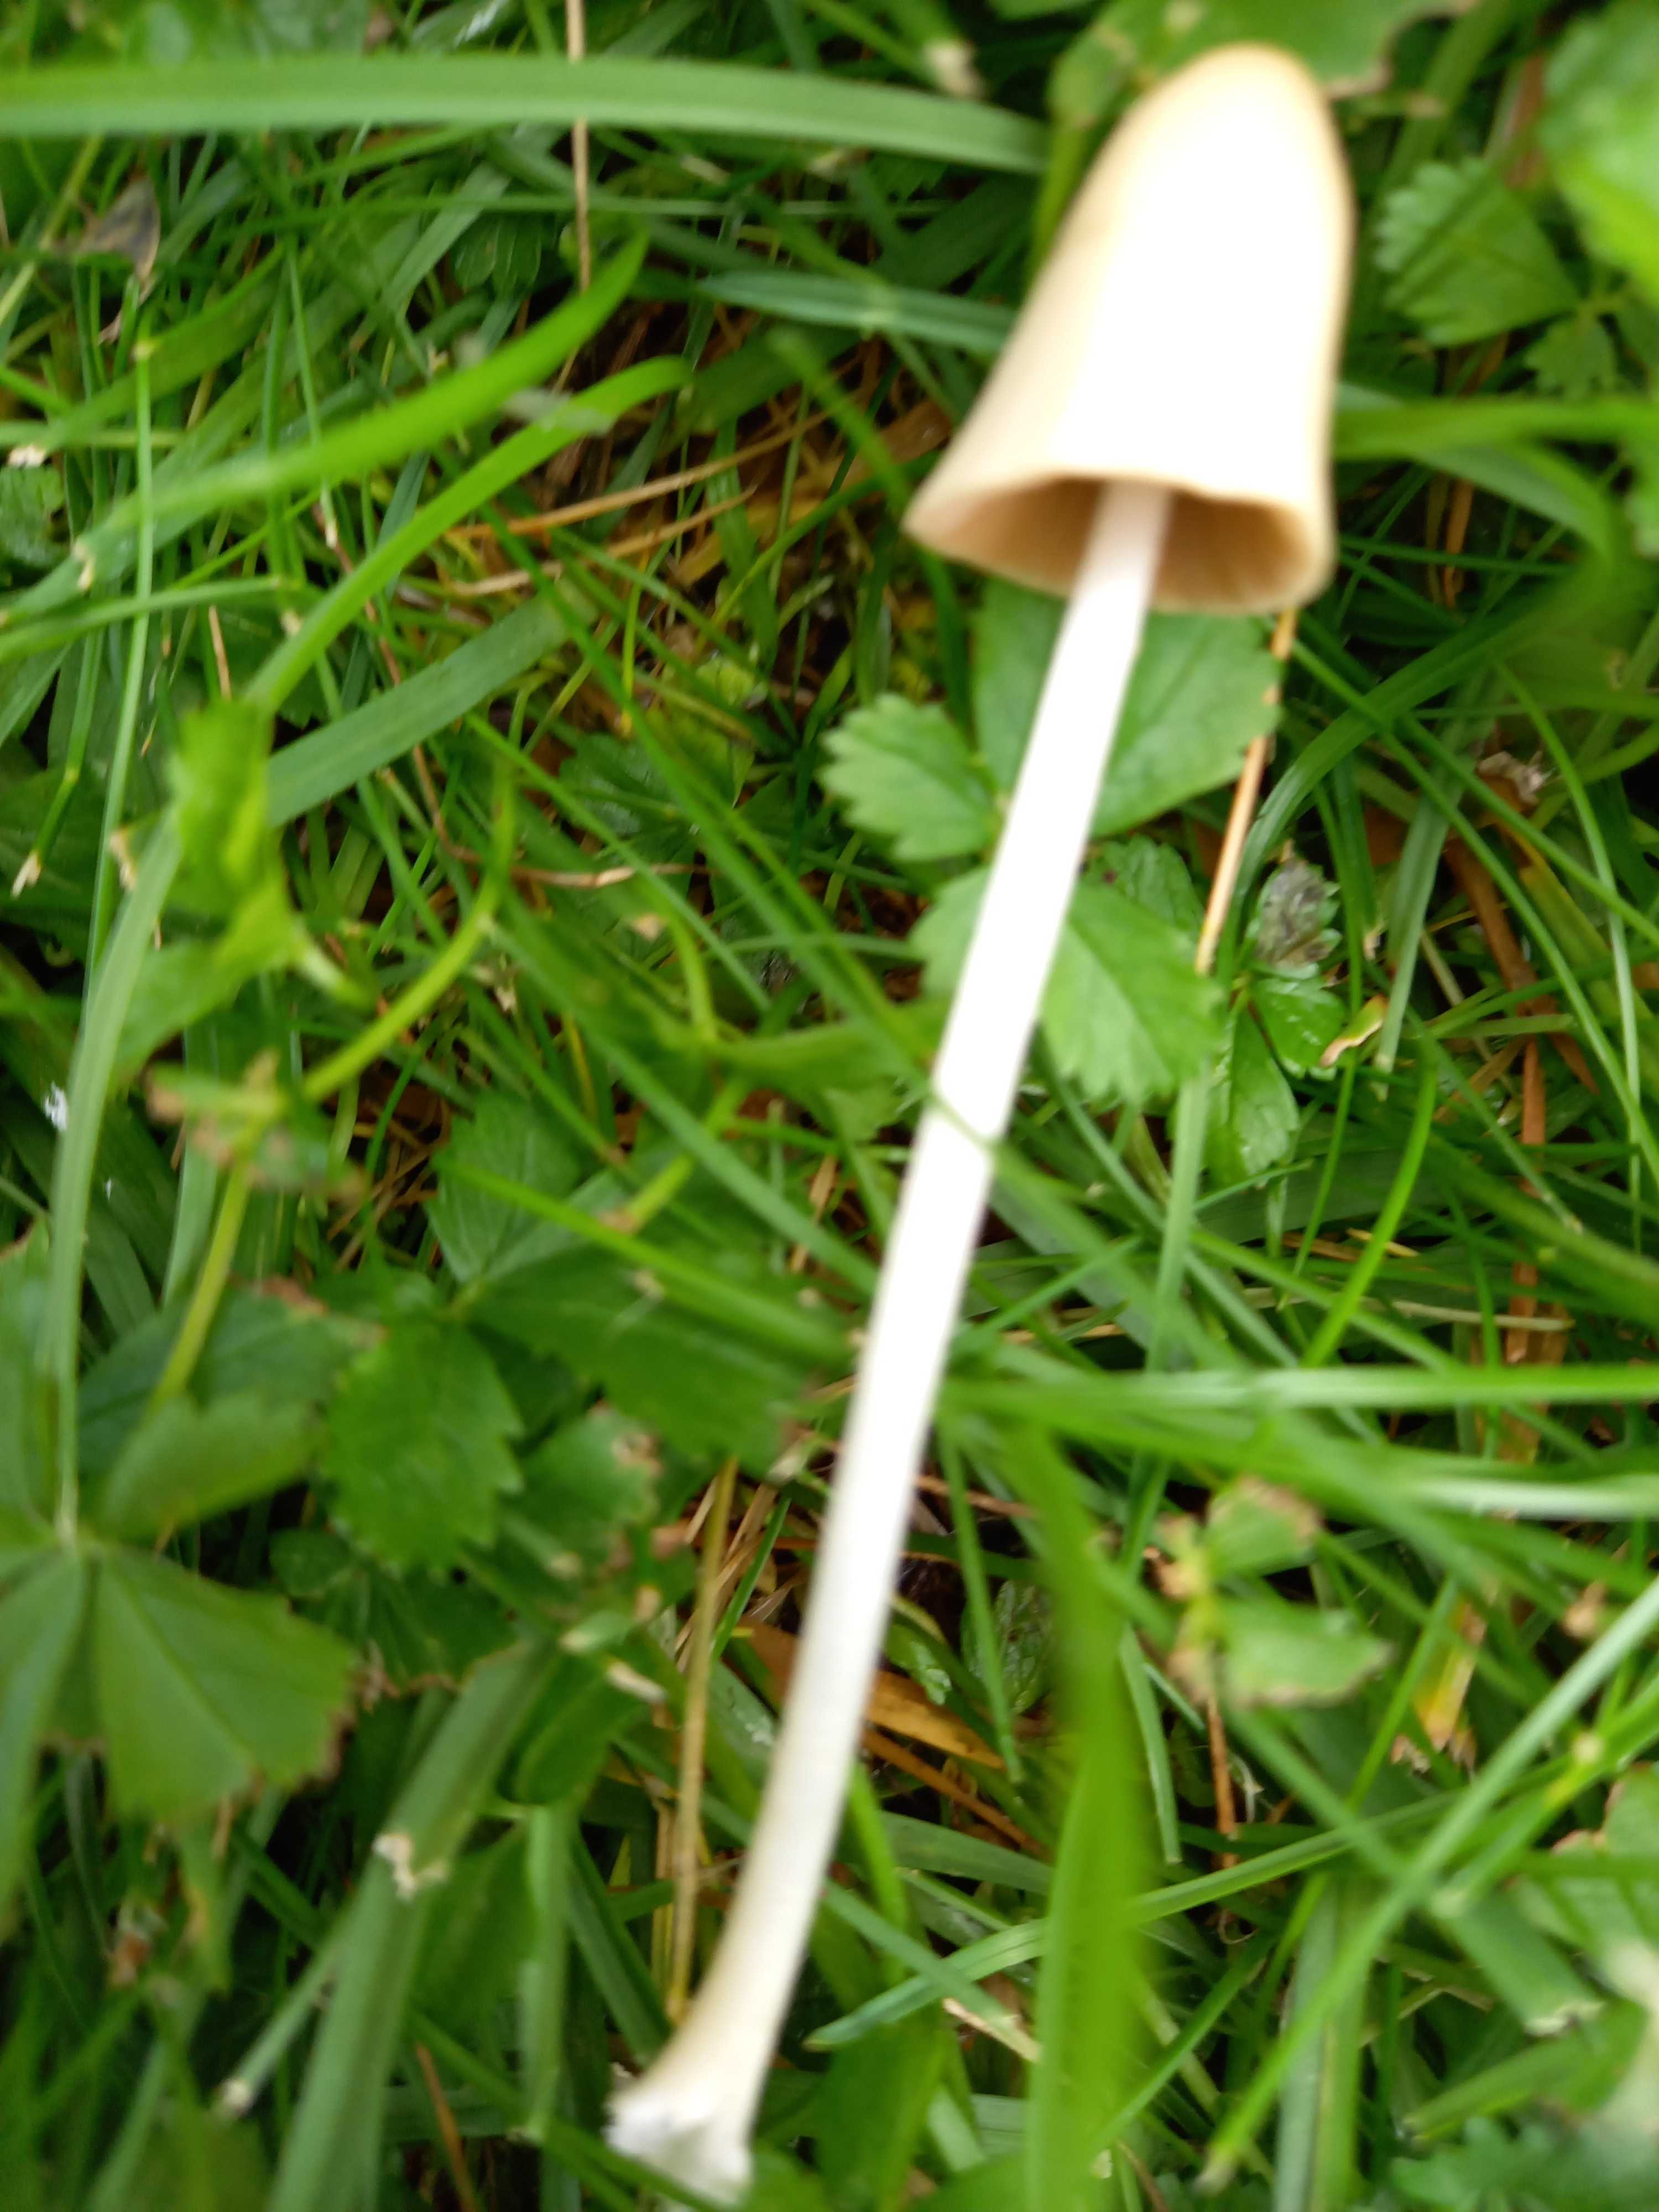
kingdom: Fungi
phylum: Basidiomycota
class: Agaricomycetes
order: Agaricales
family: Bolbitiaceae
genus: Conocybe
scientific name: Conocybe apala
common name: mælkehvid keglehat
